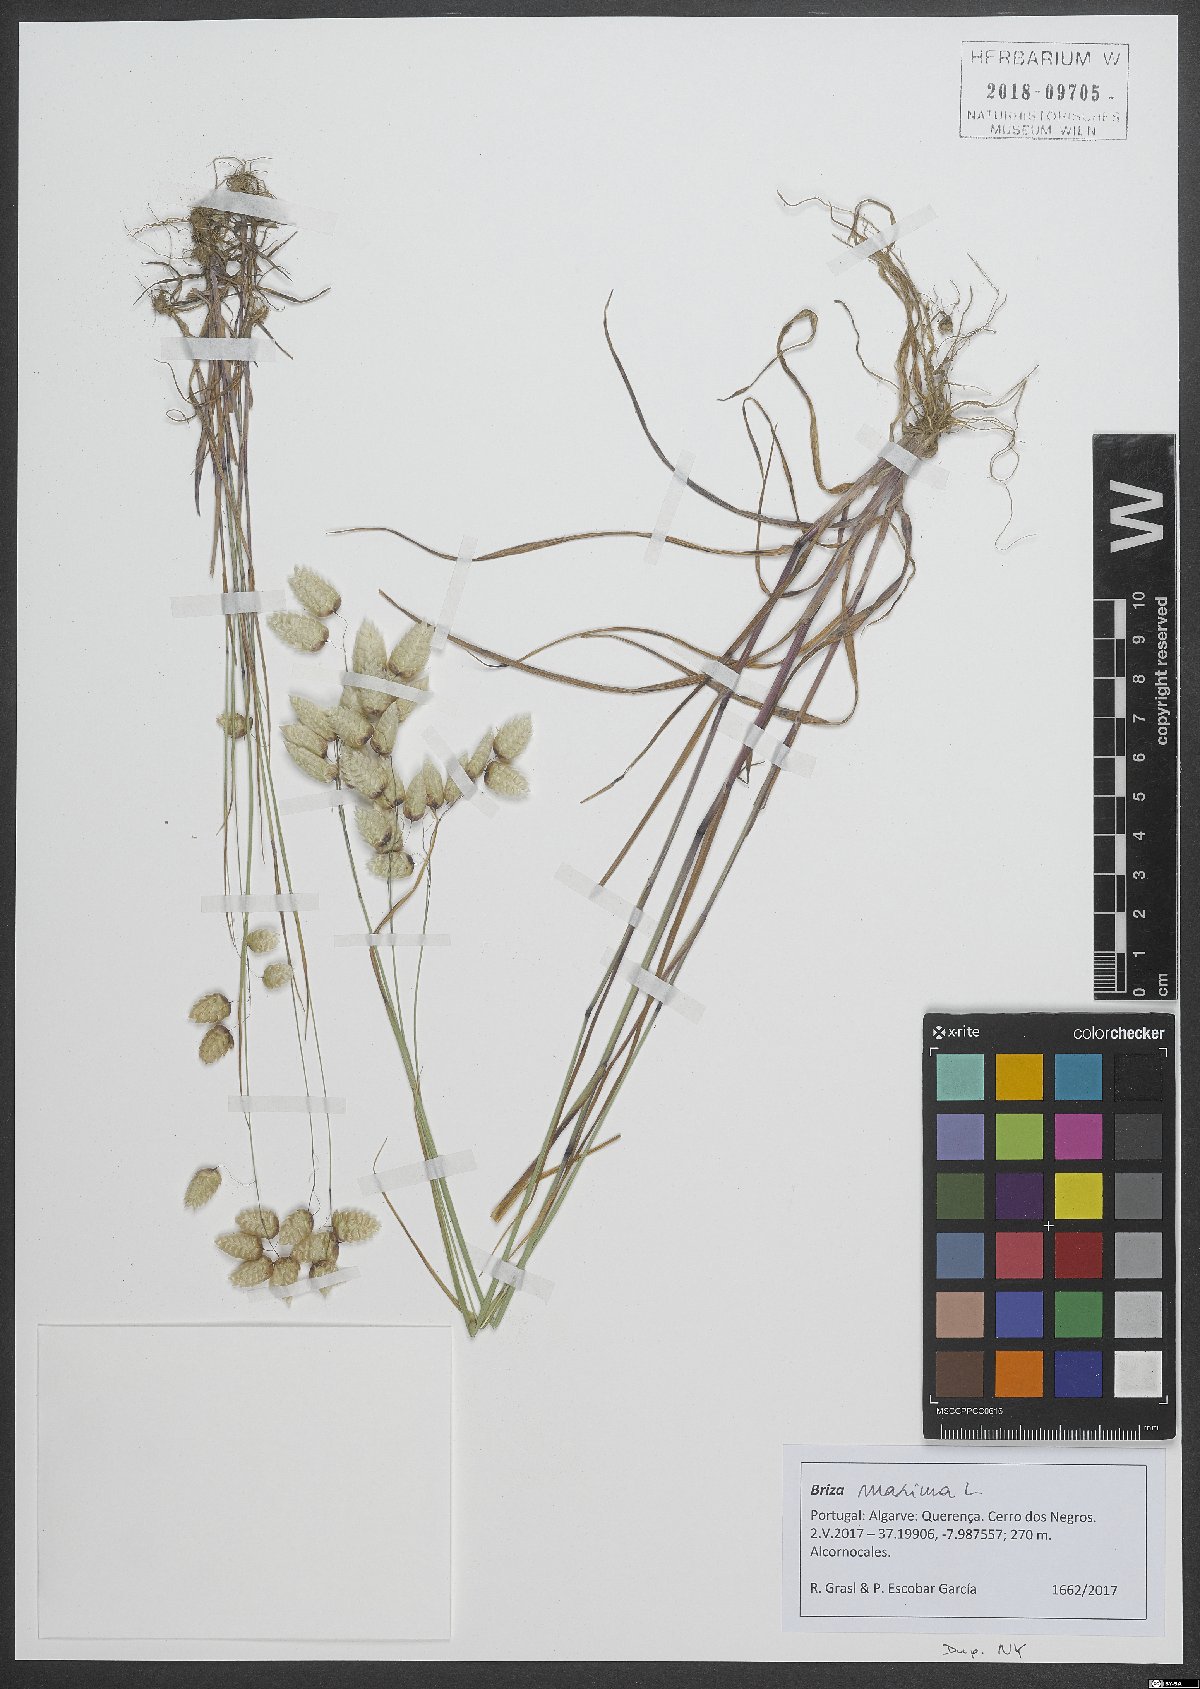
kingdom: Plantae
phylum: Tracheophyta
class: Liliopsida
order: Poales
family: Poaceae
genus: Briza
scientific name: Briza maxima
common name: Big quakinggrass
